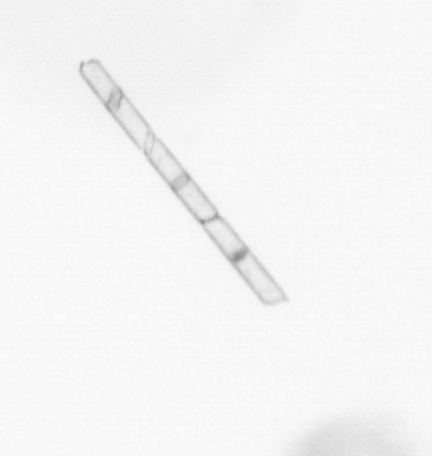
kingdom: Chromista
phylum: Ochrophyta
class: Bacillariophyceae
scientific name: Bacillariophyceae
